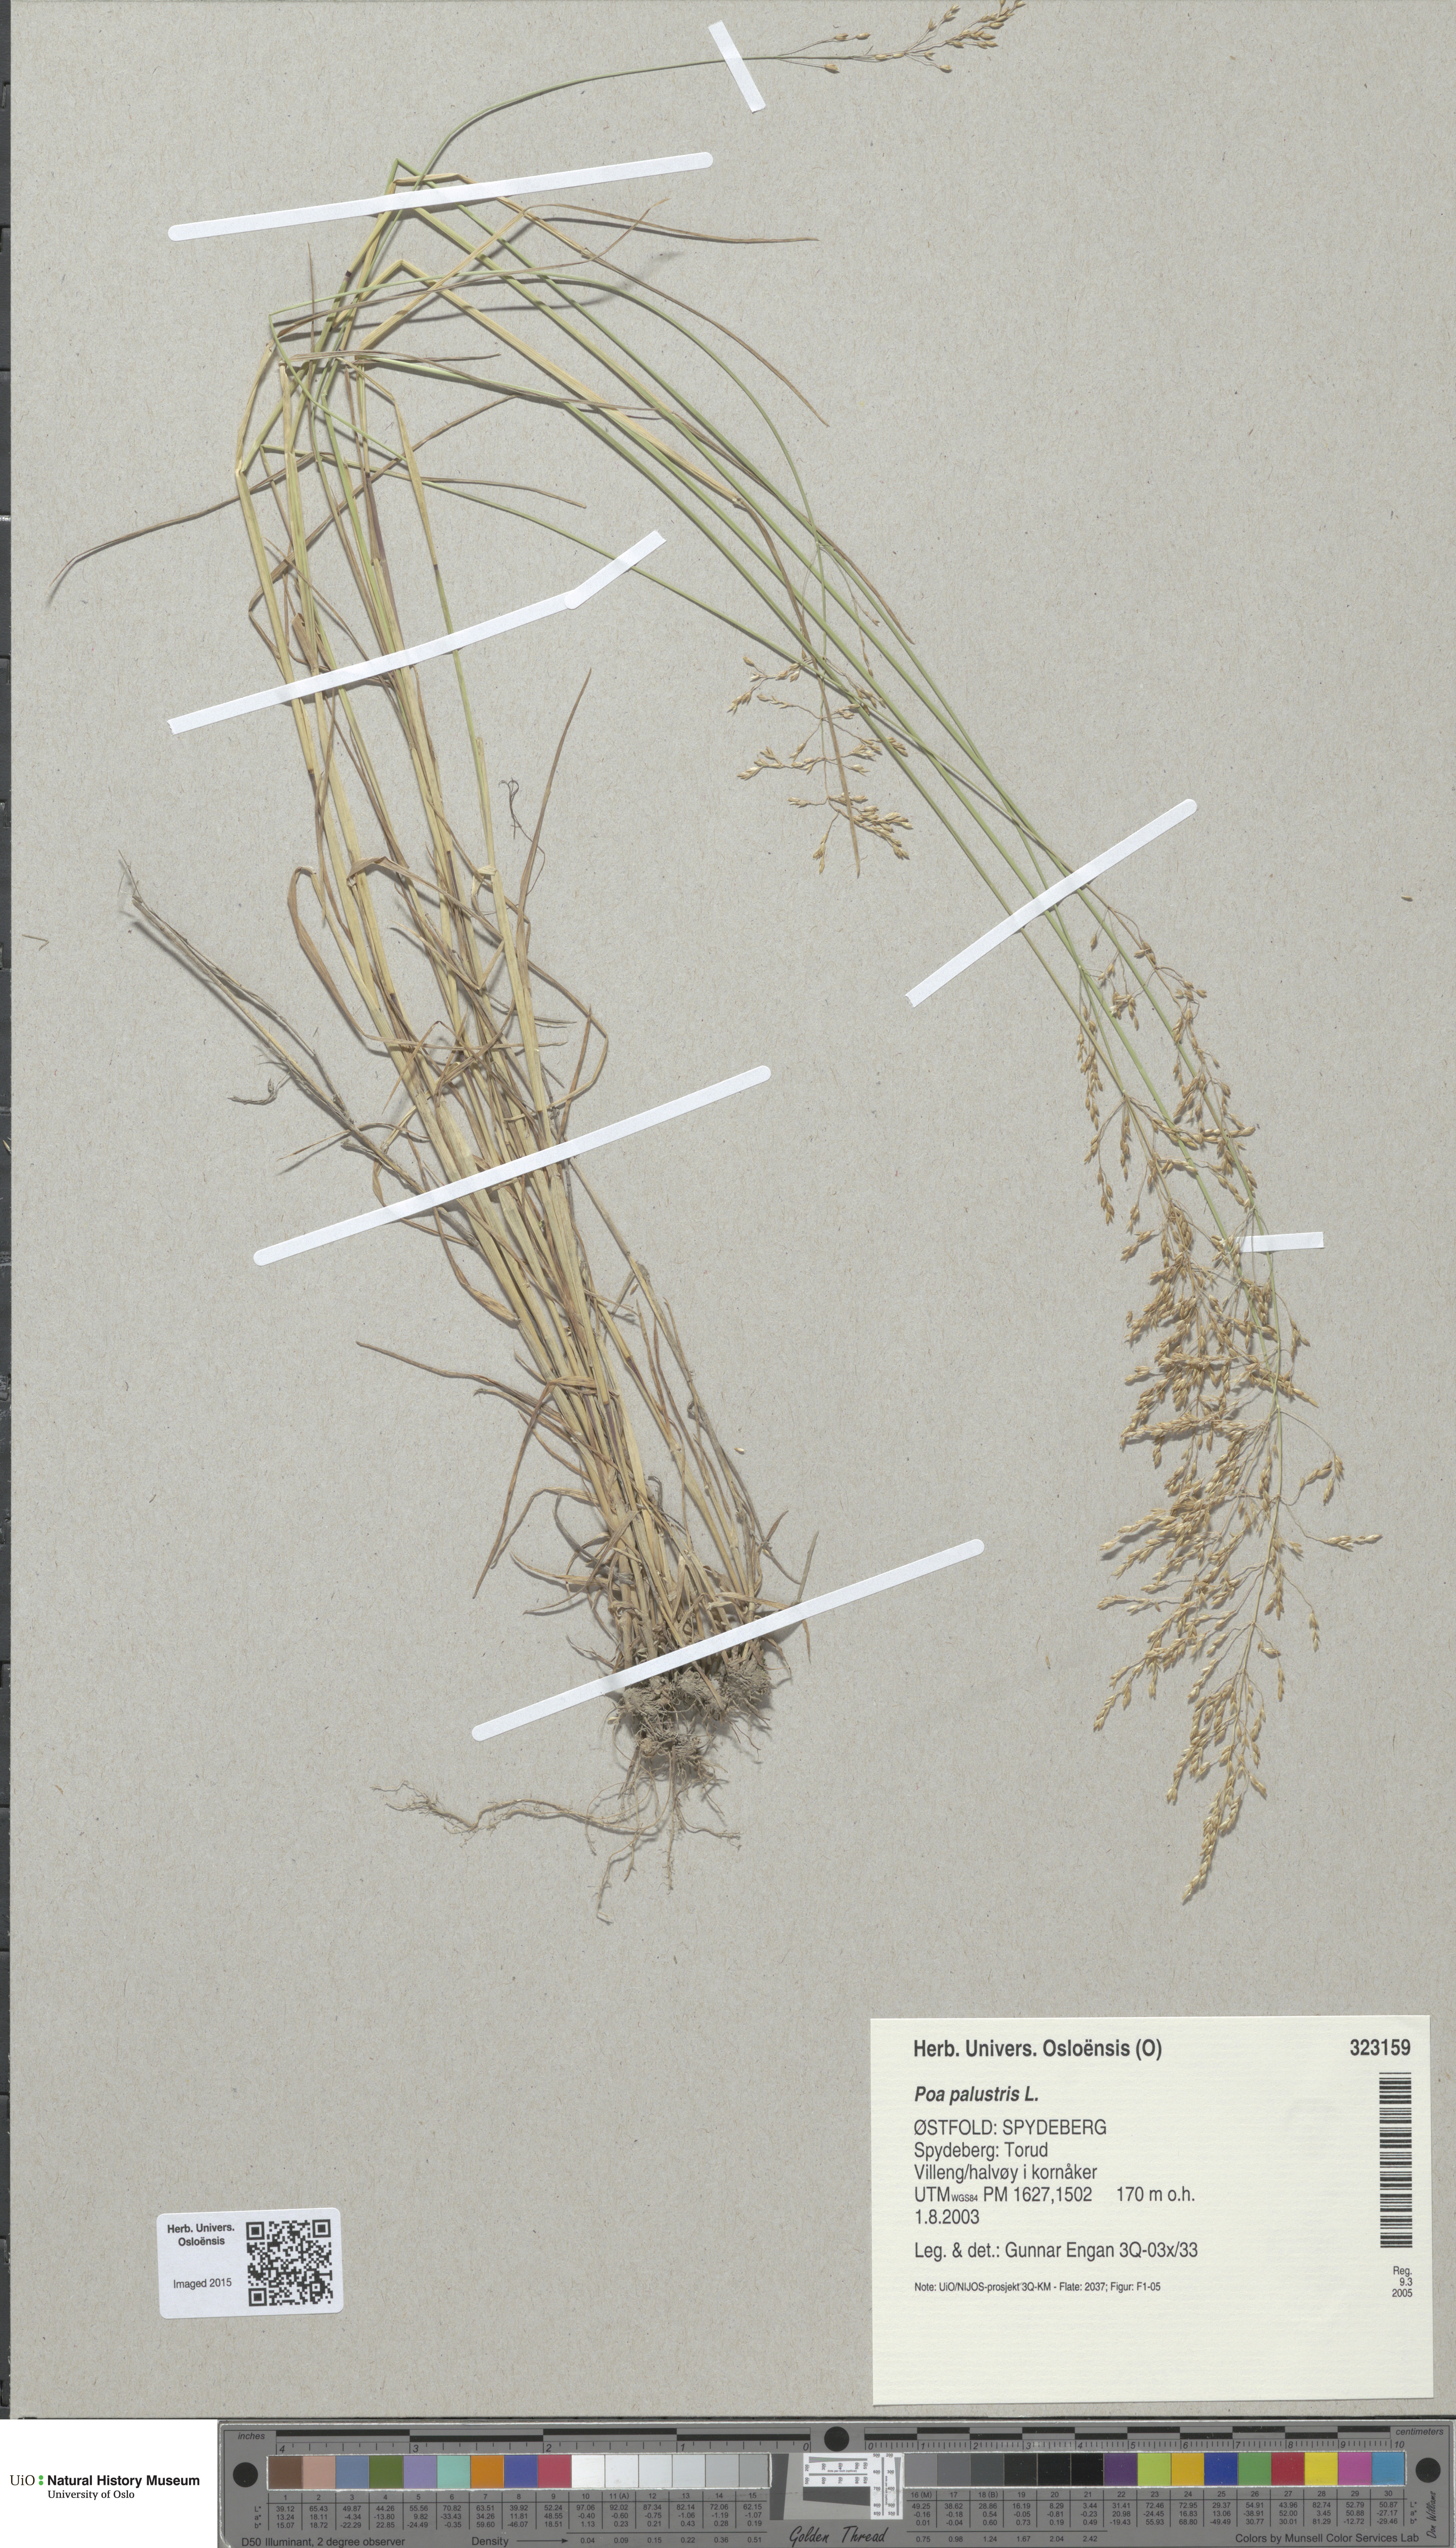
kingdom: Plantae
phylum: Tracheophyta
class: Liliopsida
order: Poales
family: Poaceae
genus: Poa
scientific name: Poa palustris
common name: Swamp meadow-grass
